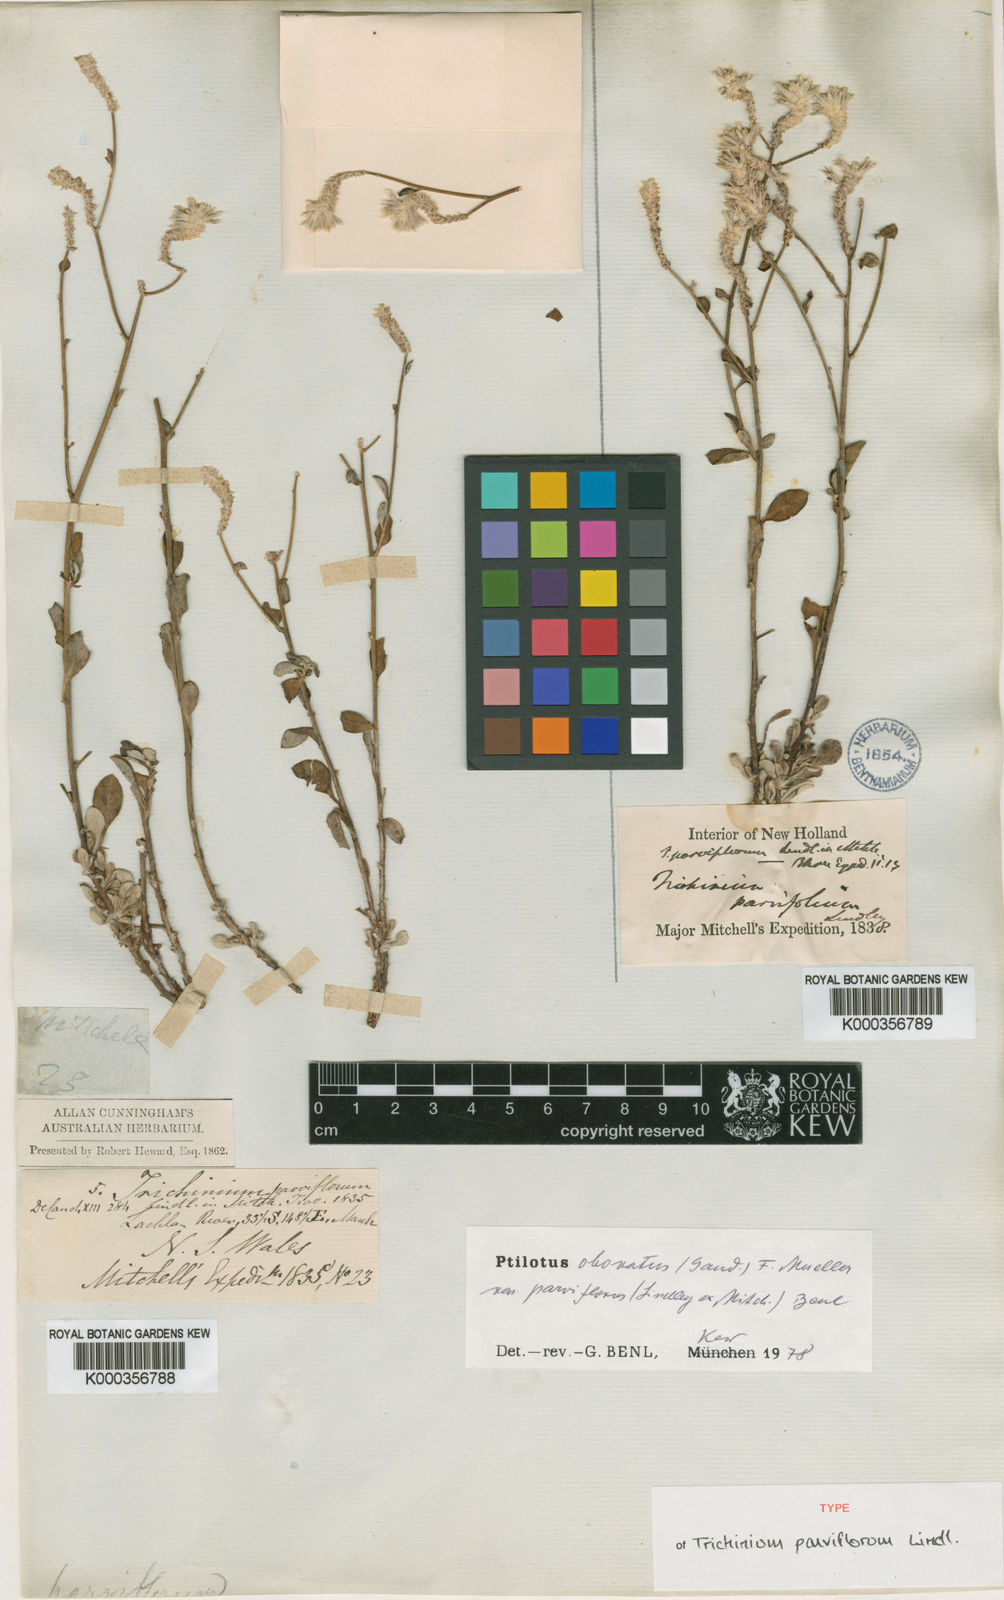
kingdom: Plantae
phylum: Tracheophyta
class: Magnoliopsida
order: Caryophyllales
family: Amaranthaceae
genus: Ptilotus
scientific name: Ptilotus parviflorus
